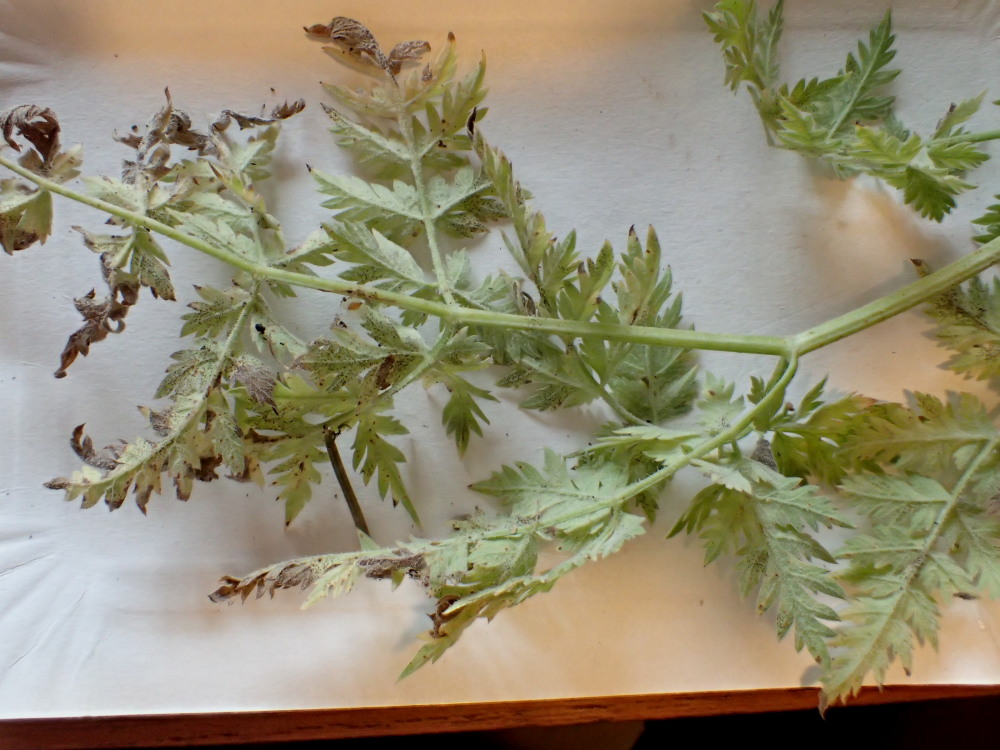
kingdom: Fungi
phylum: Ascomycota
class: Leotiomycetes
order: Helotiales
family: Erysiphaceae
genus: Erysiphe
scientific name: Erysiphe heraclei
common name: skærmplante-meldug
